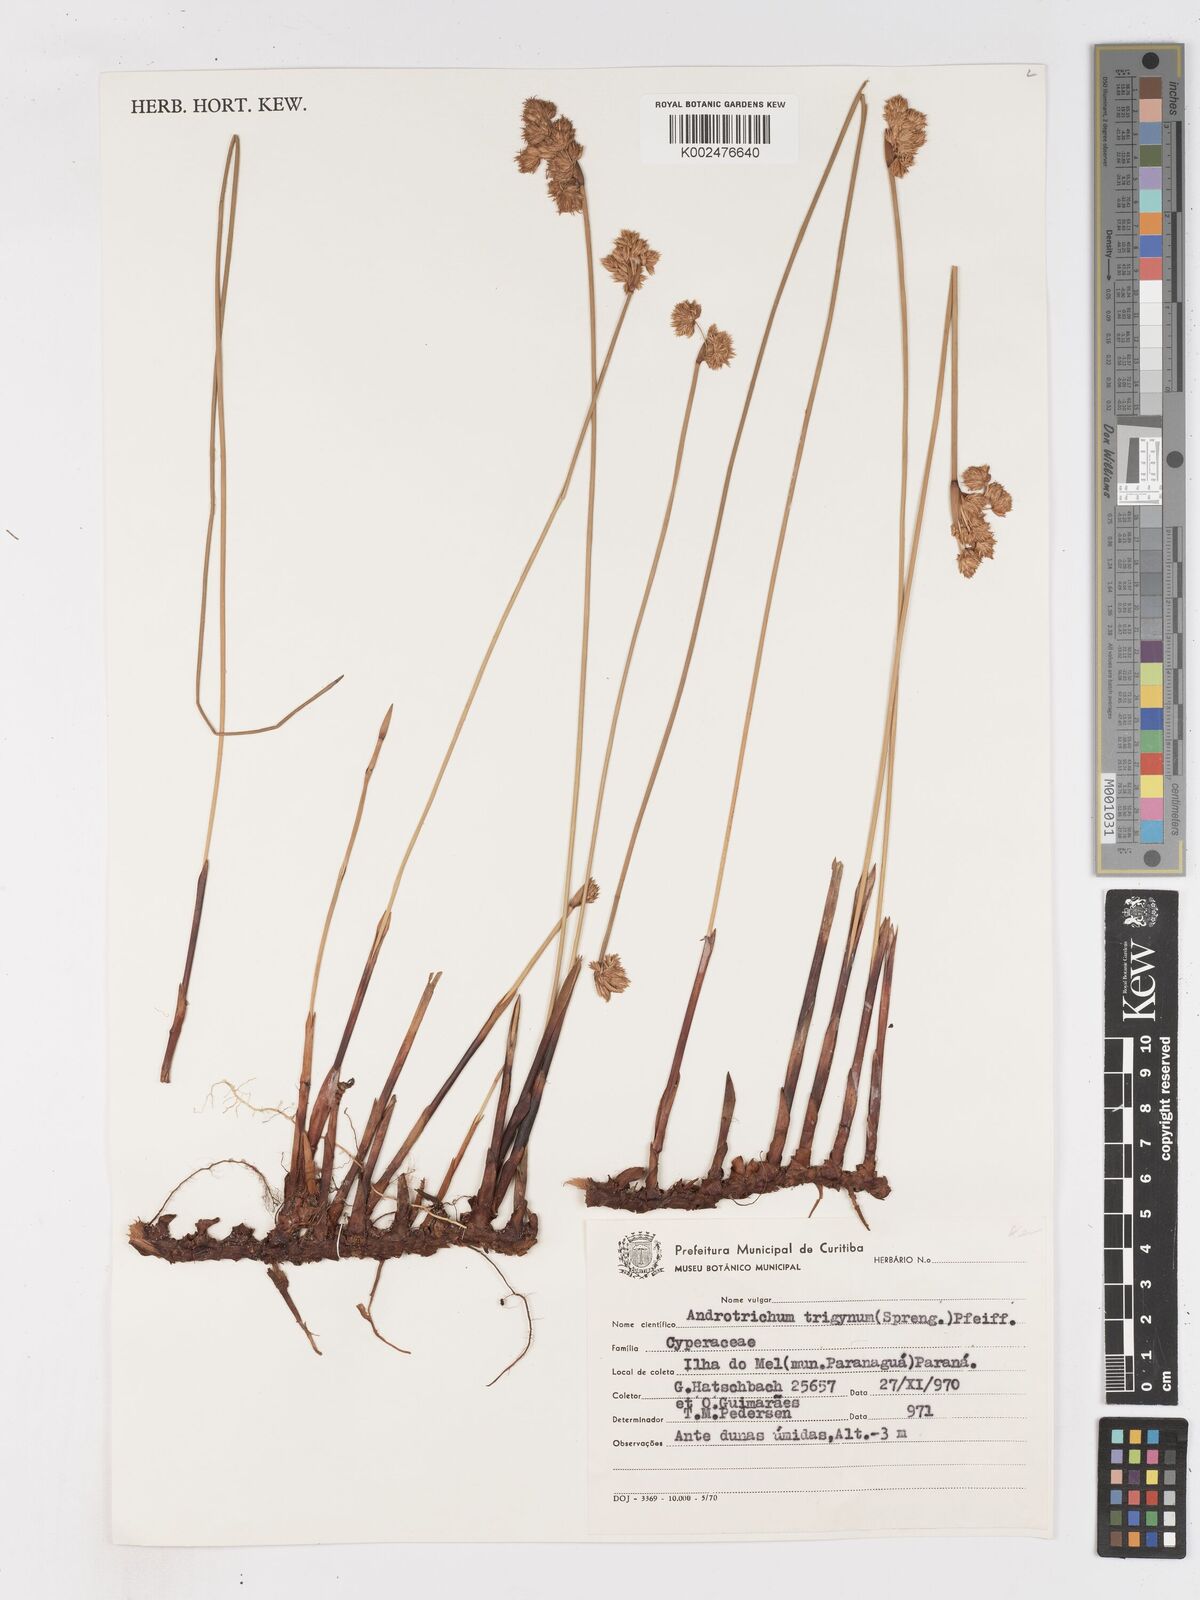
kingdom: Plantae
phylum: Tracheophyta
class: Liliopsida
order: Poales
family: Cyperaceae
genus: Cyperus
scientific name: Cyperus trigynus
